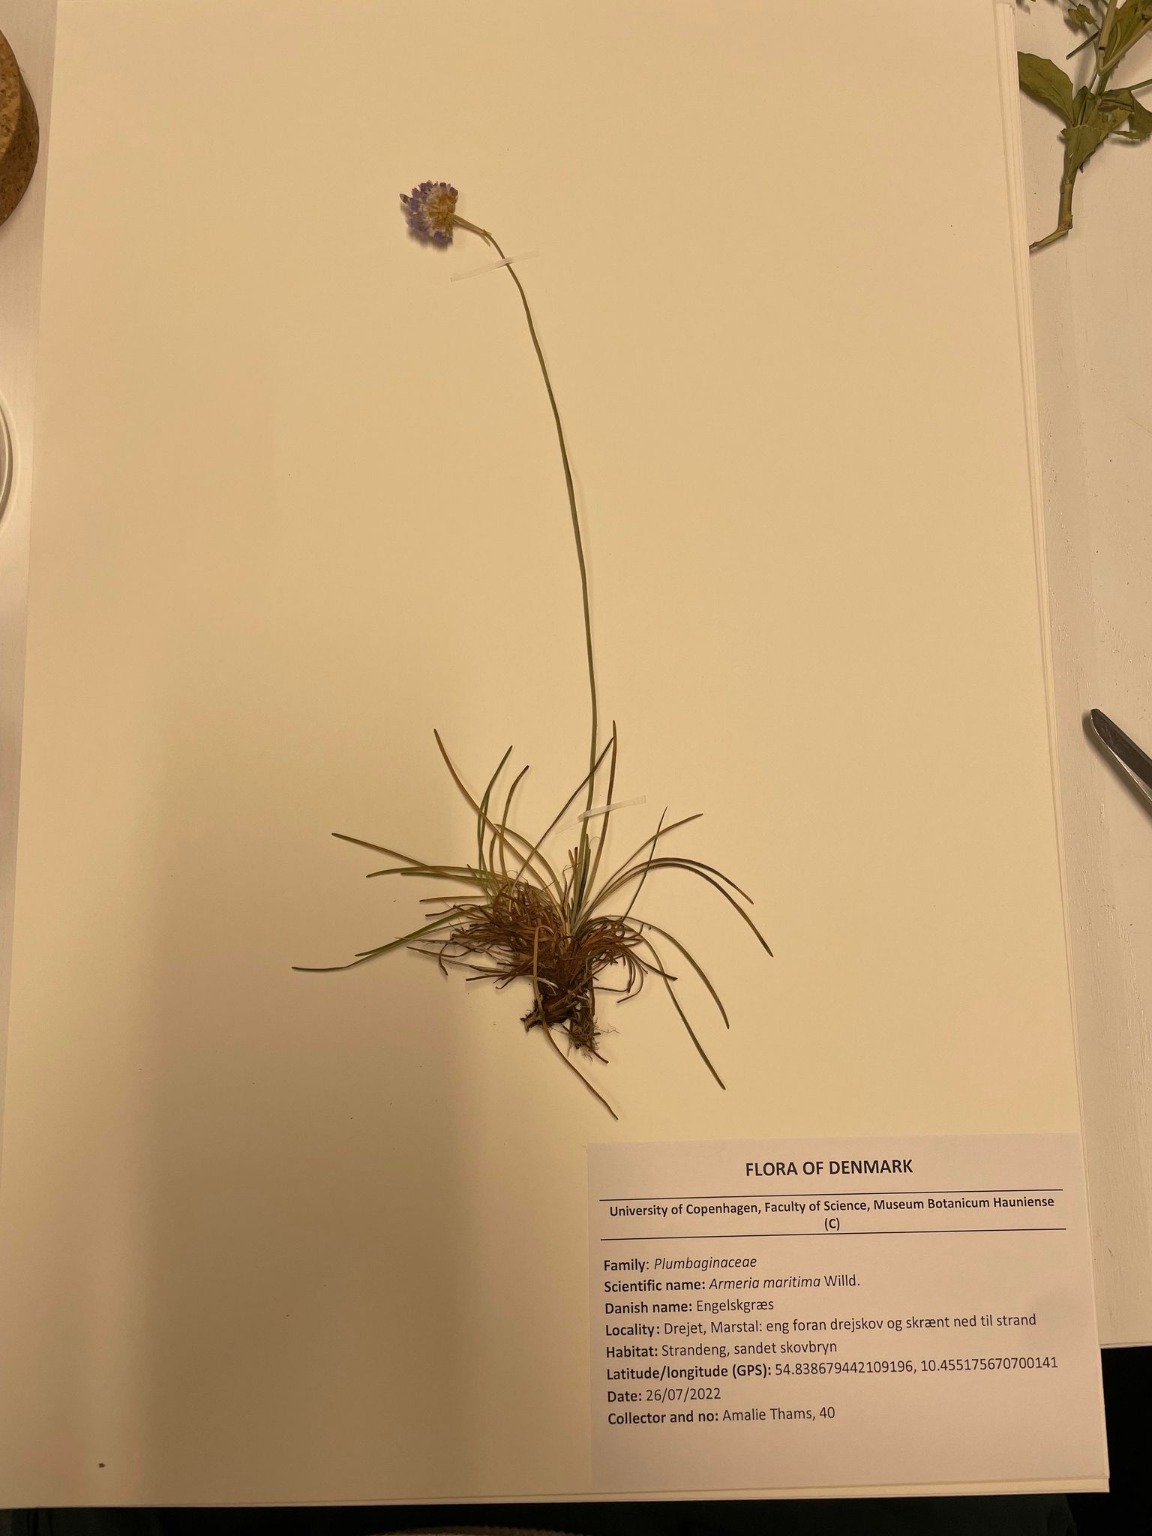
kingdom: Plantae
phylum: Tracheophyta
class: Magnoliopsida
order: Caryophyllales
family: Plumbaginaceae
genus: Armeria
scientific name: Armeria maritima
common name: Engelskgræs
